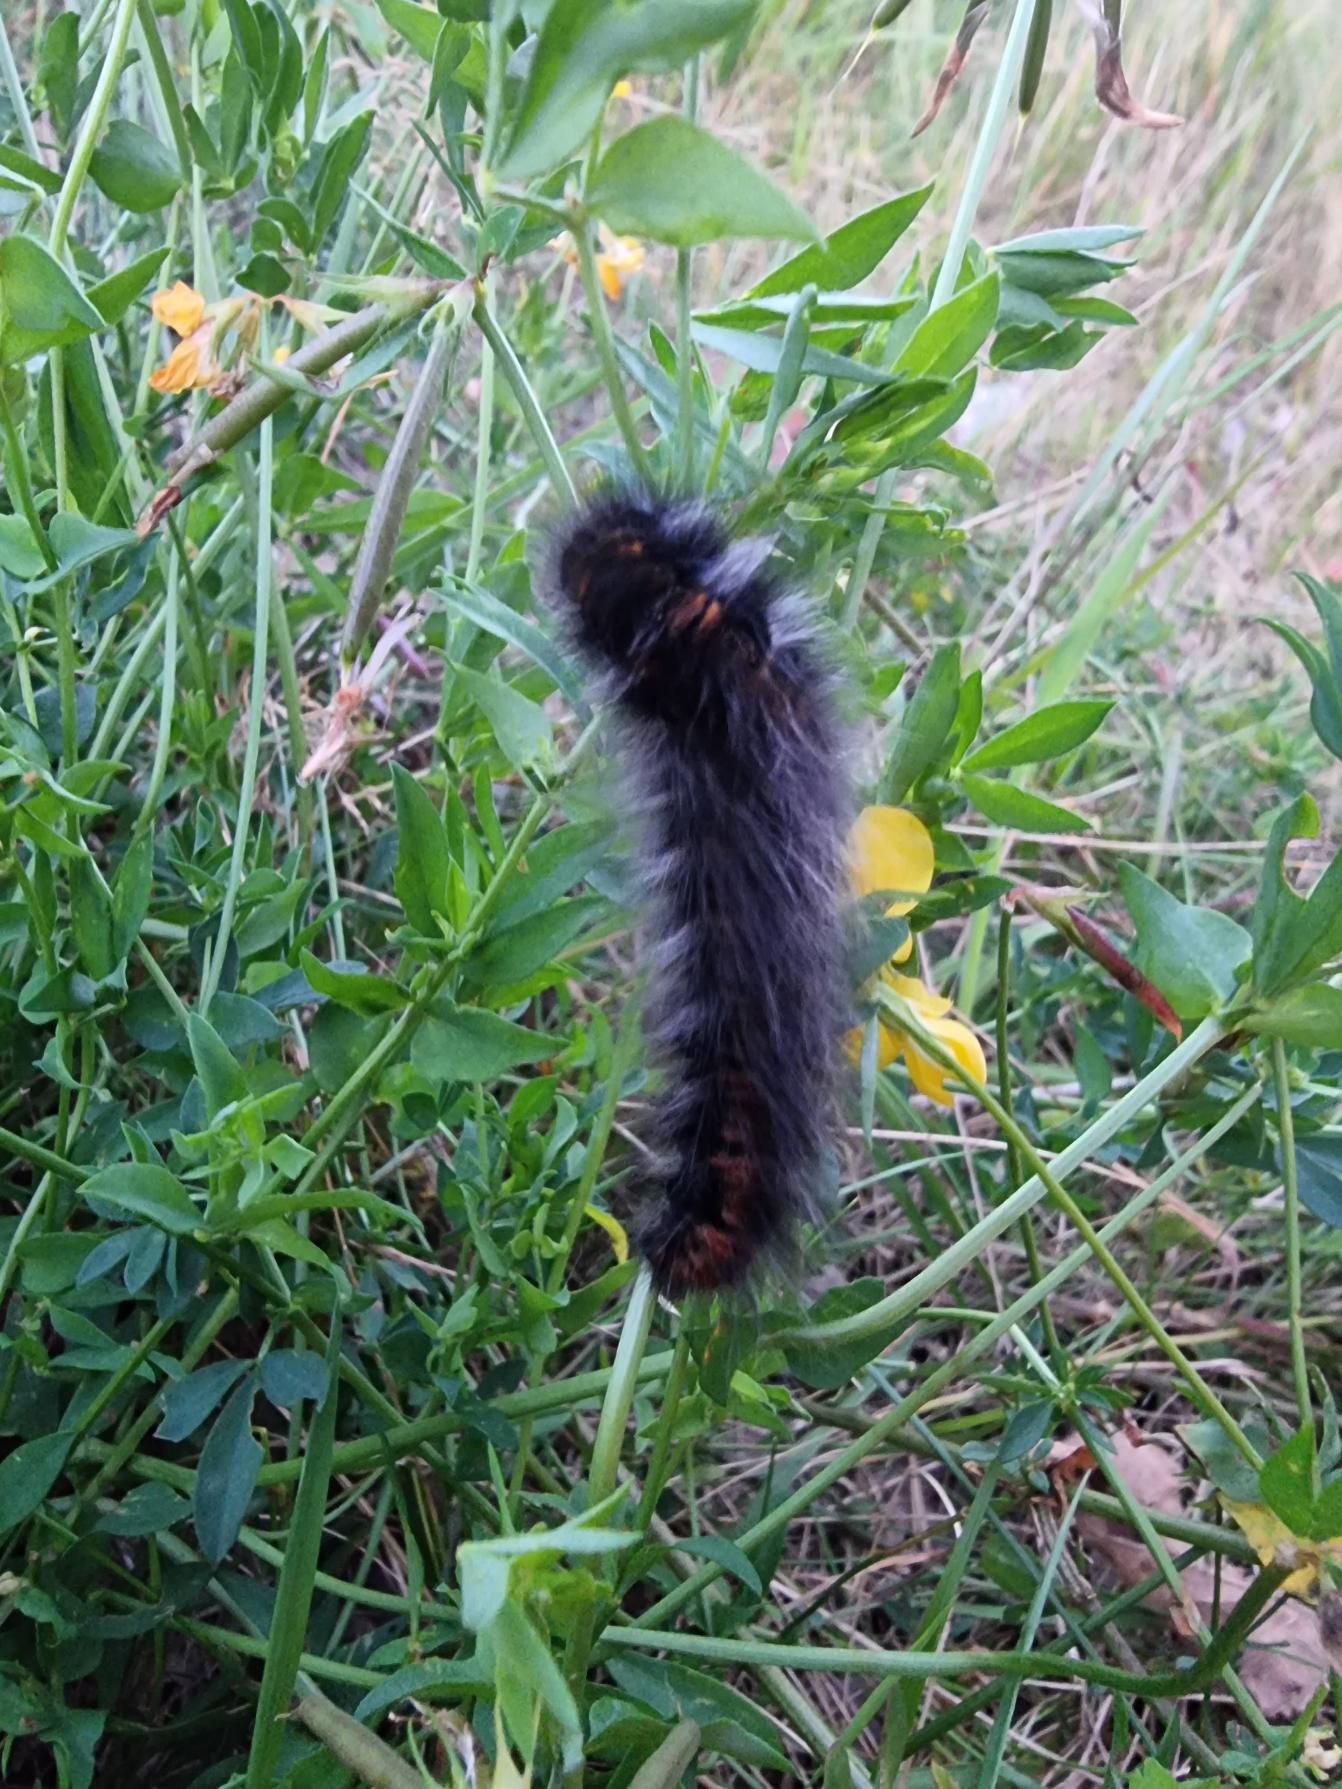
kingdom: Animalia
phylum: Arthropoda
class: Insecta
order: Lepidoptera
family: Lasiocampidae
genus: Macrothylacia
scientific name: Macrothylacia rubi
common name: Brombærspinder
